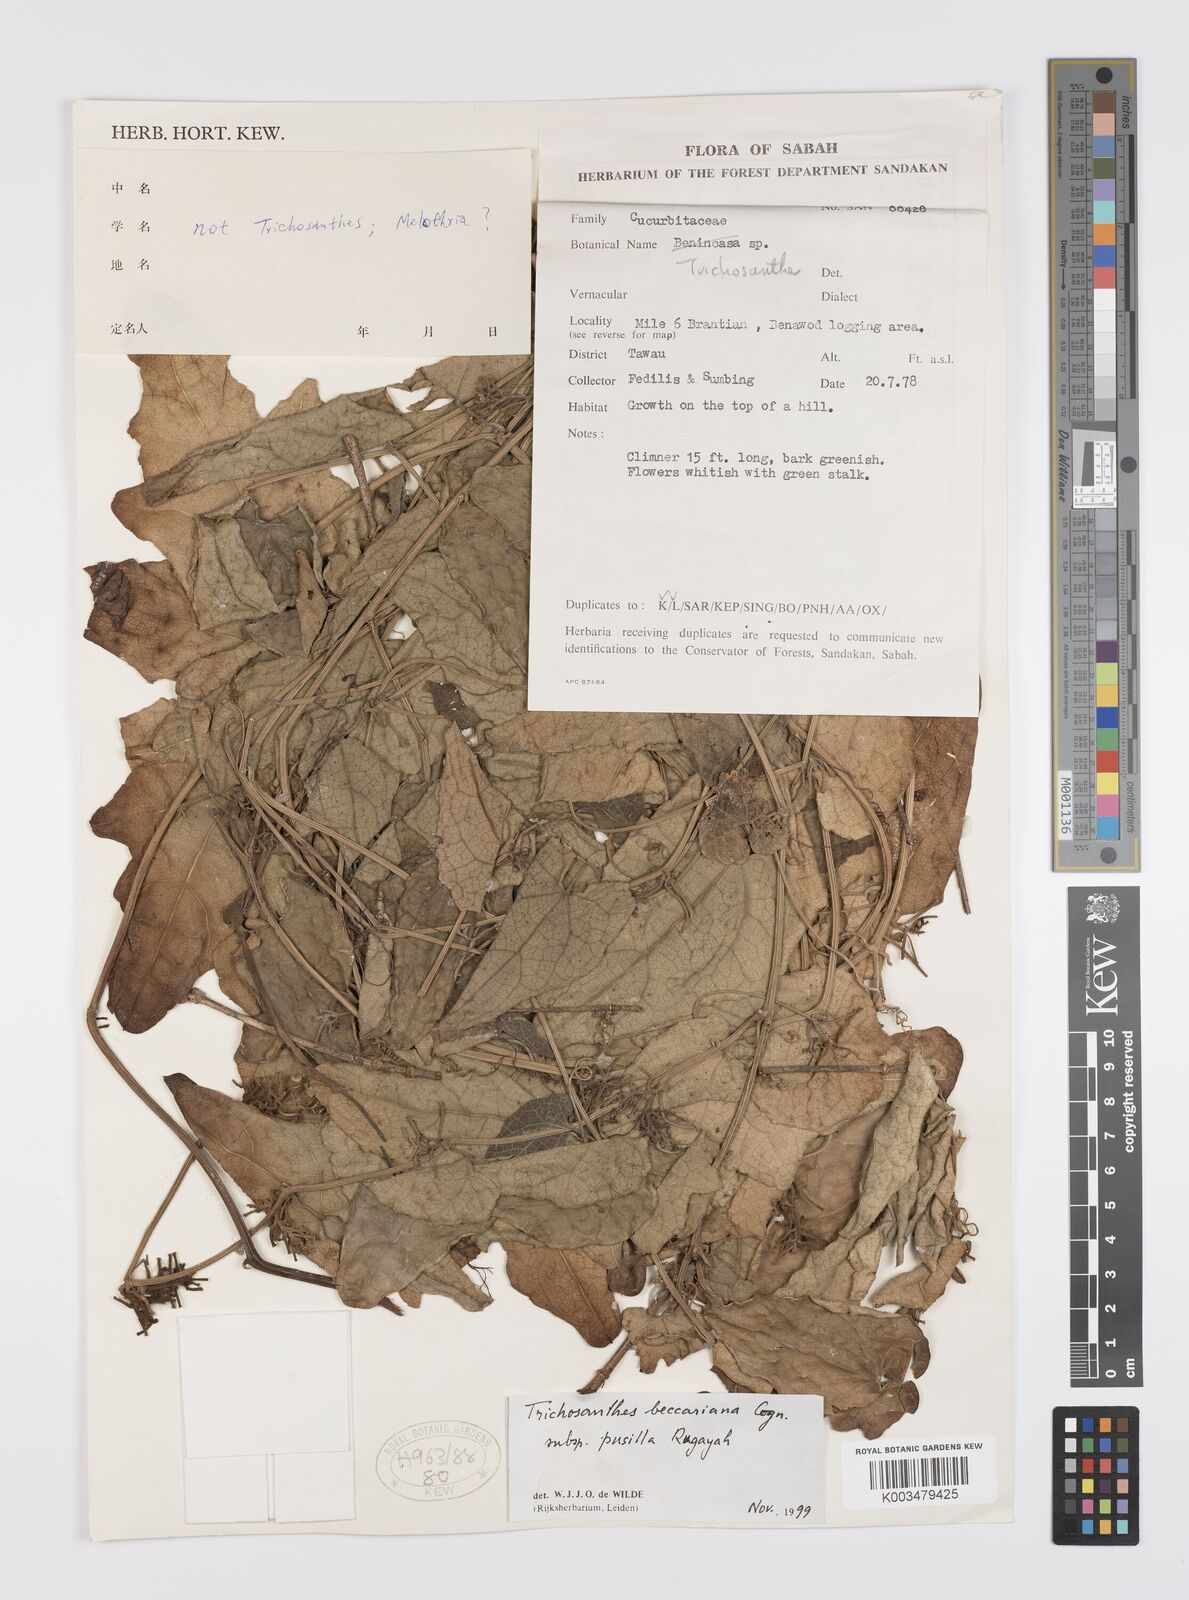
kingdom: Plantae
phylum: Tracheophyta
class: Magnoliopsida
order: Cucurbitales
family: Cucurbitaceae
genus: Trichosanthes
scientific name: Trichosanthes beccariana
